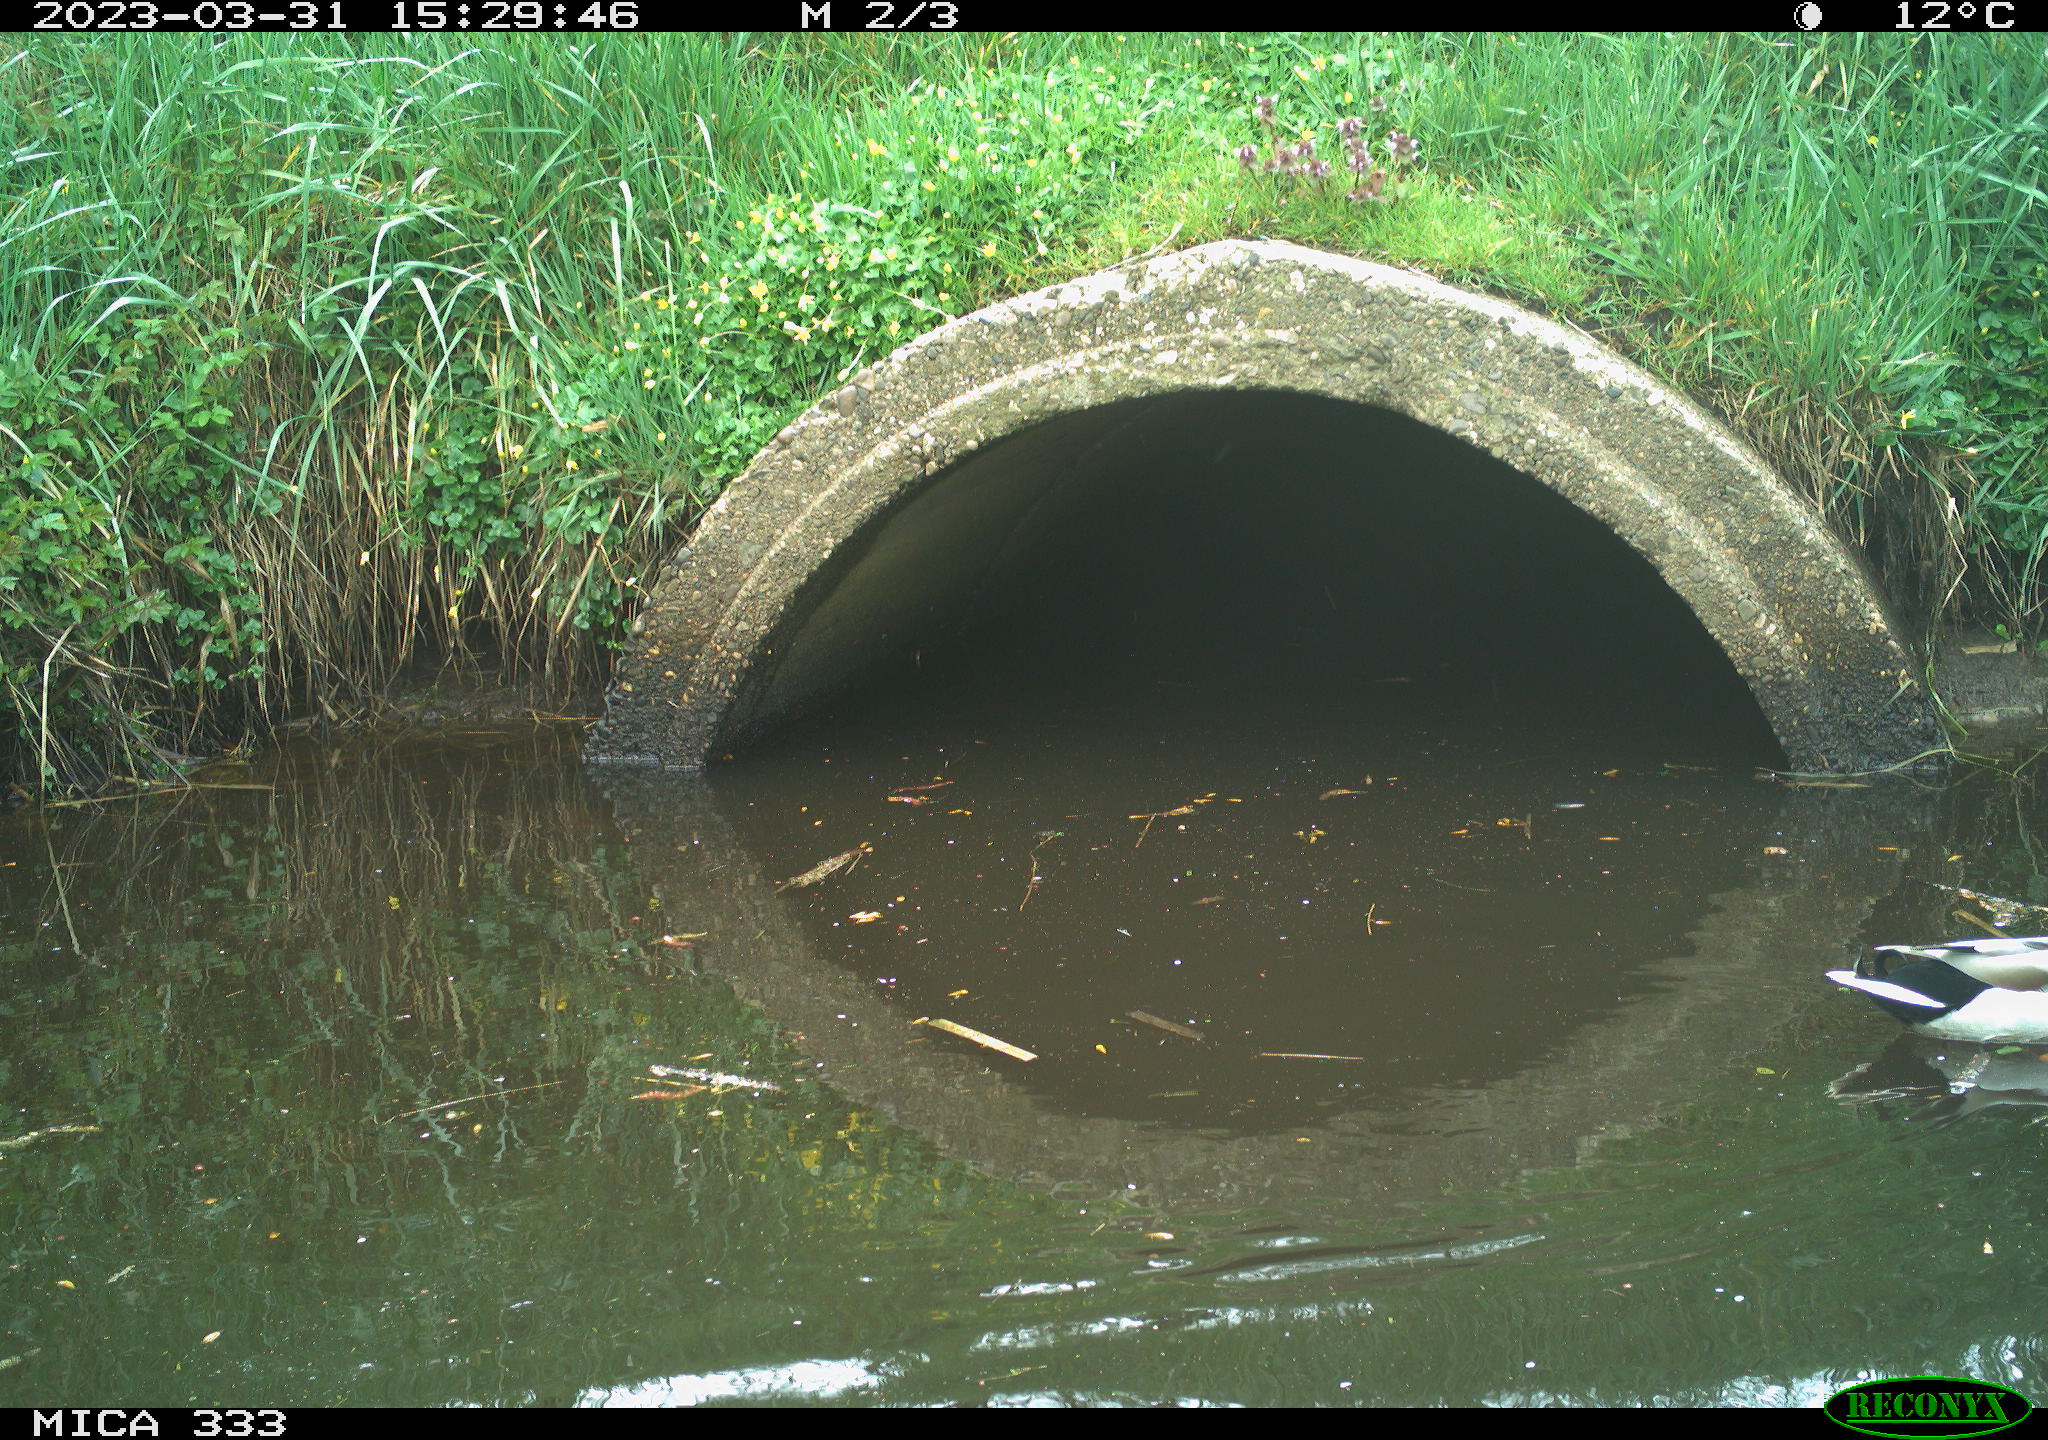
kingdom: Animalia
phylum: Chordata
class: Aves
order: Anseriformes
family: Anatidae
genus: Anas
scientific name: Anas
